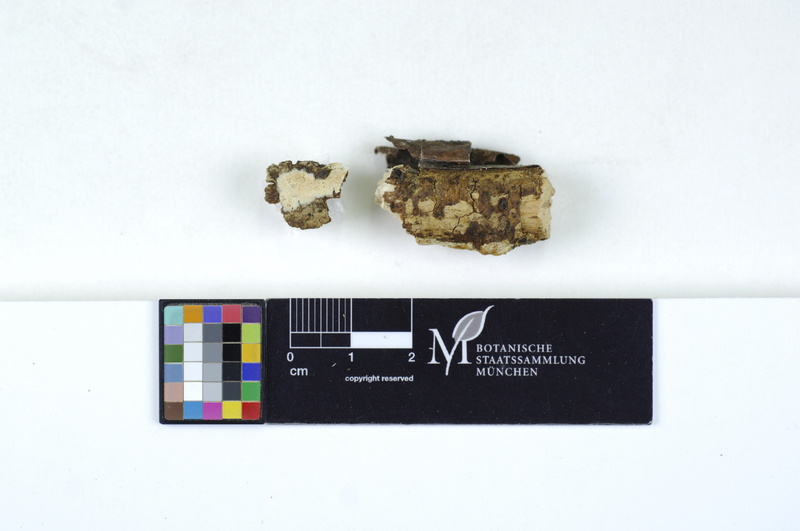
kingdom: Plantae
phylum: Tracheophyta
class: Magnoliopsida
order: Fagales
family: Betulaceae
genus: Alnus
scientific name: Alnus
